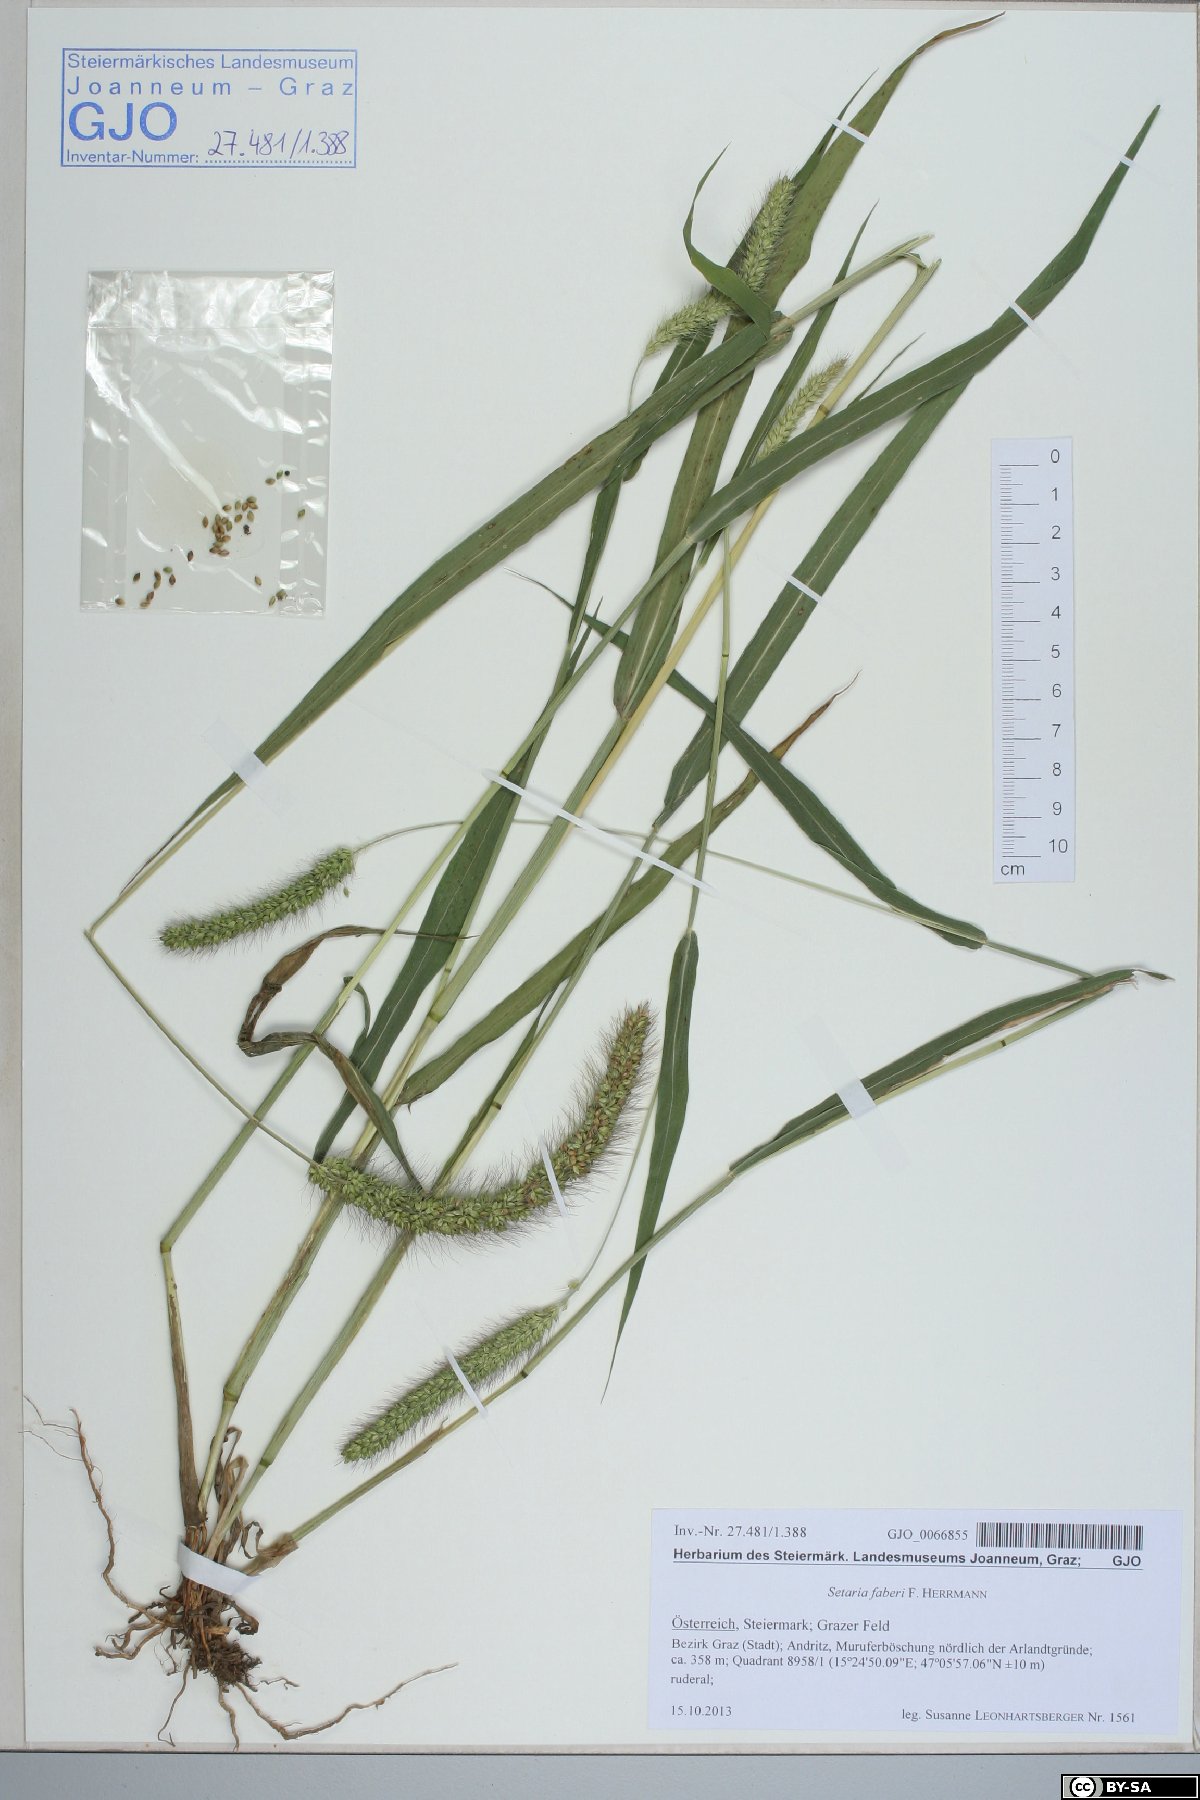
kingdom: Plantae
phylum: Tracheophyta
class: Liliopsida
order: Poales
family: Poaceae
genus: Setaria
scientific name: Setaria faberi
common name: Nodding bristle-grass
